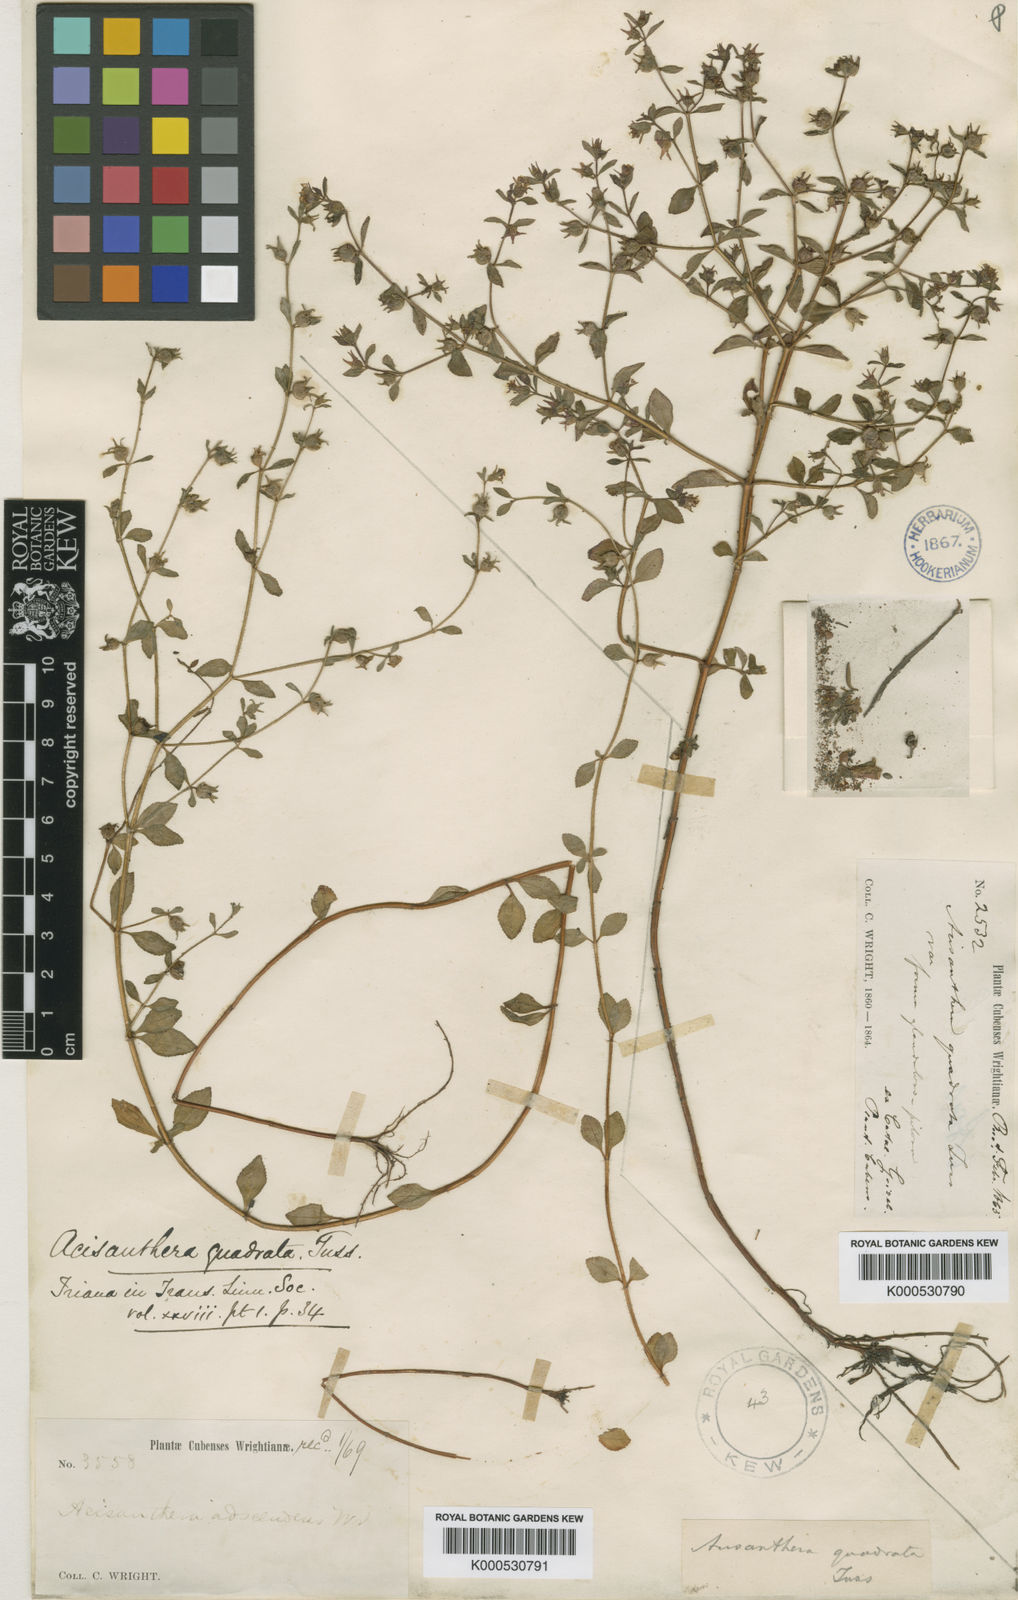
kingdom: Plantae
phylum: Tracheophyta
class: Magnoliopsida
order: Myrtales
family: Melastomataceae
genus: Acisanthera
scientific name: Acisanthera
